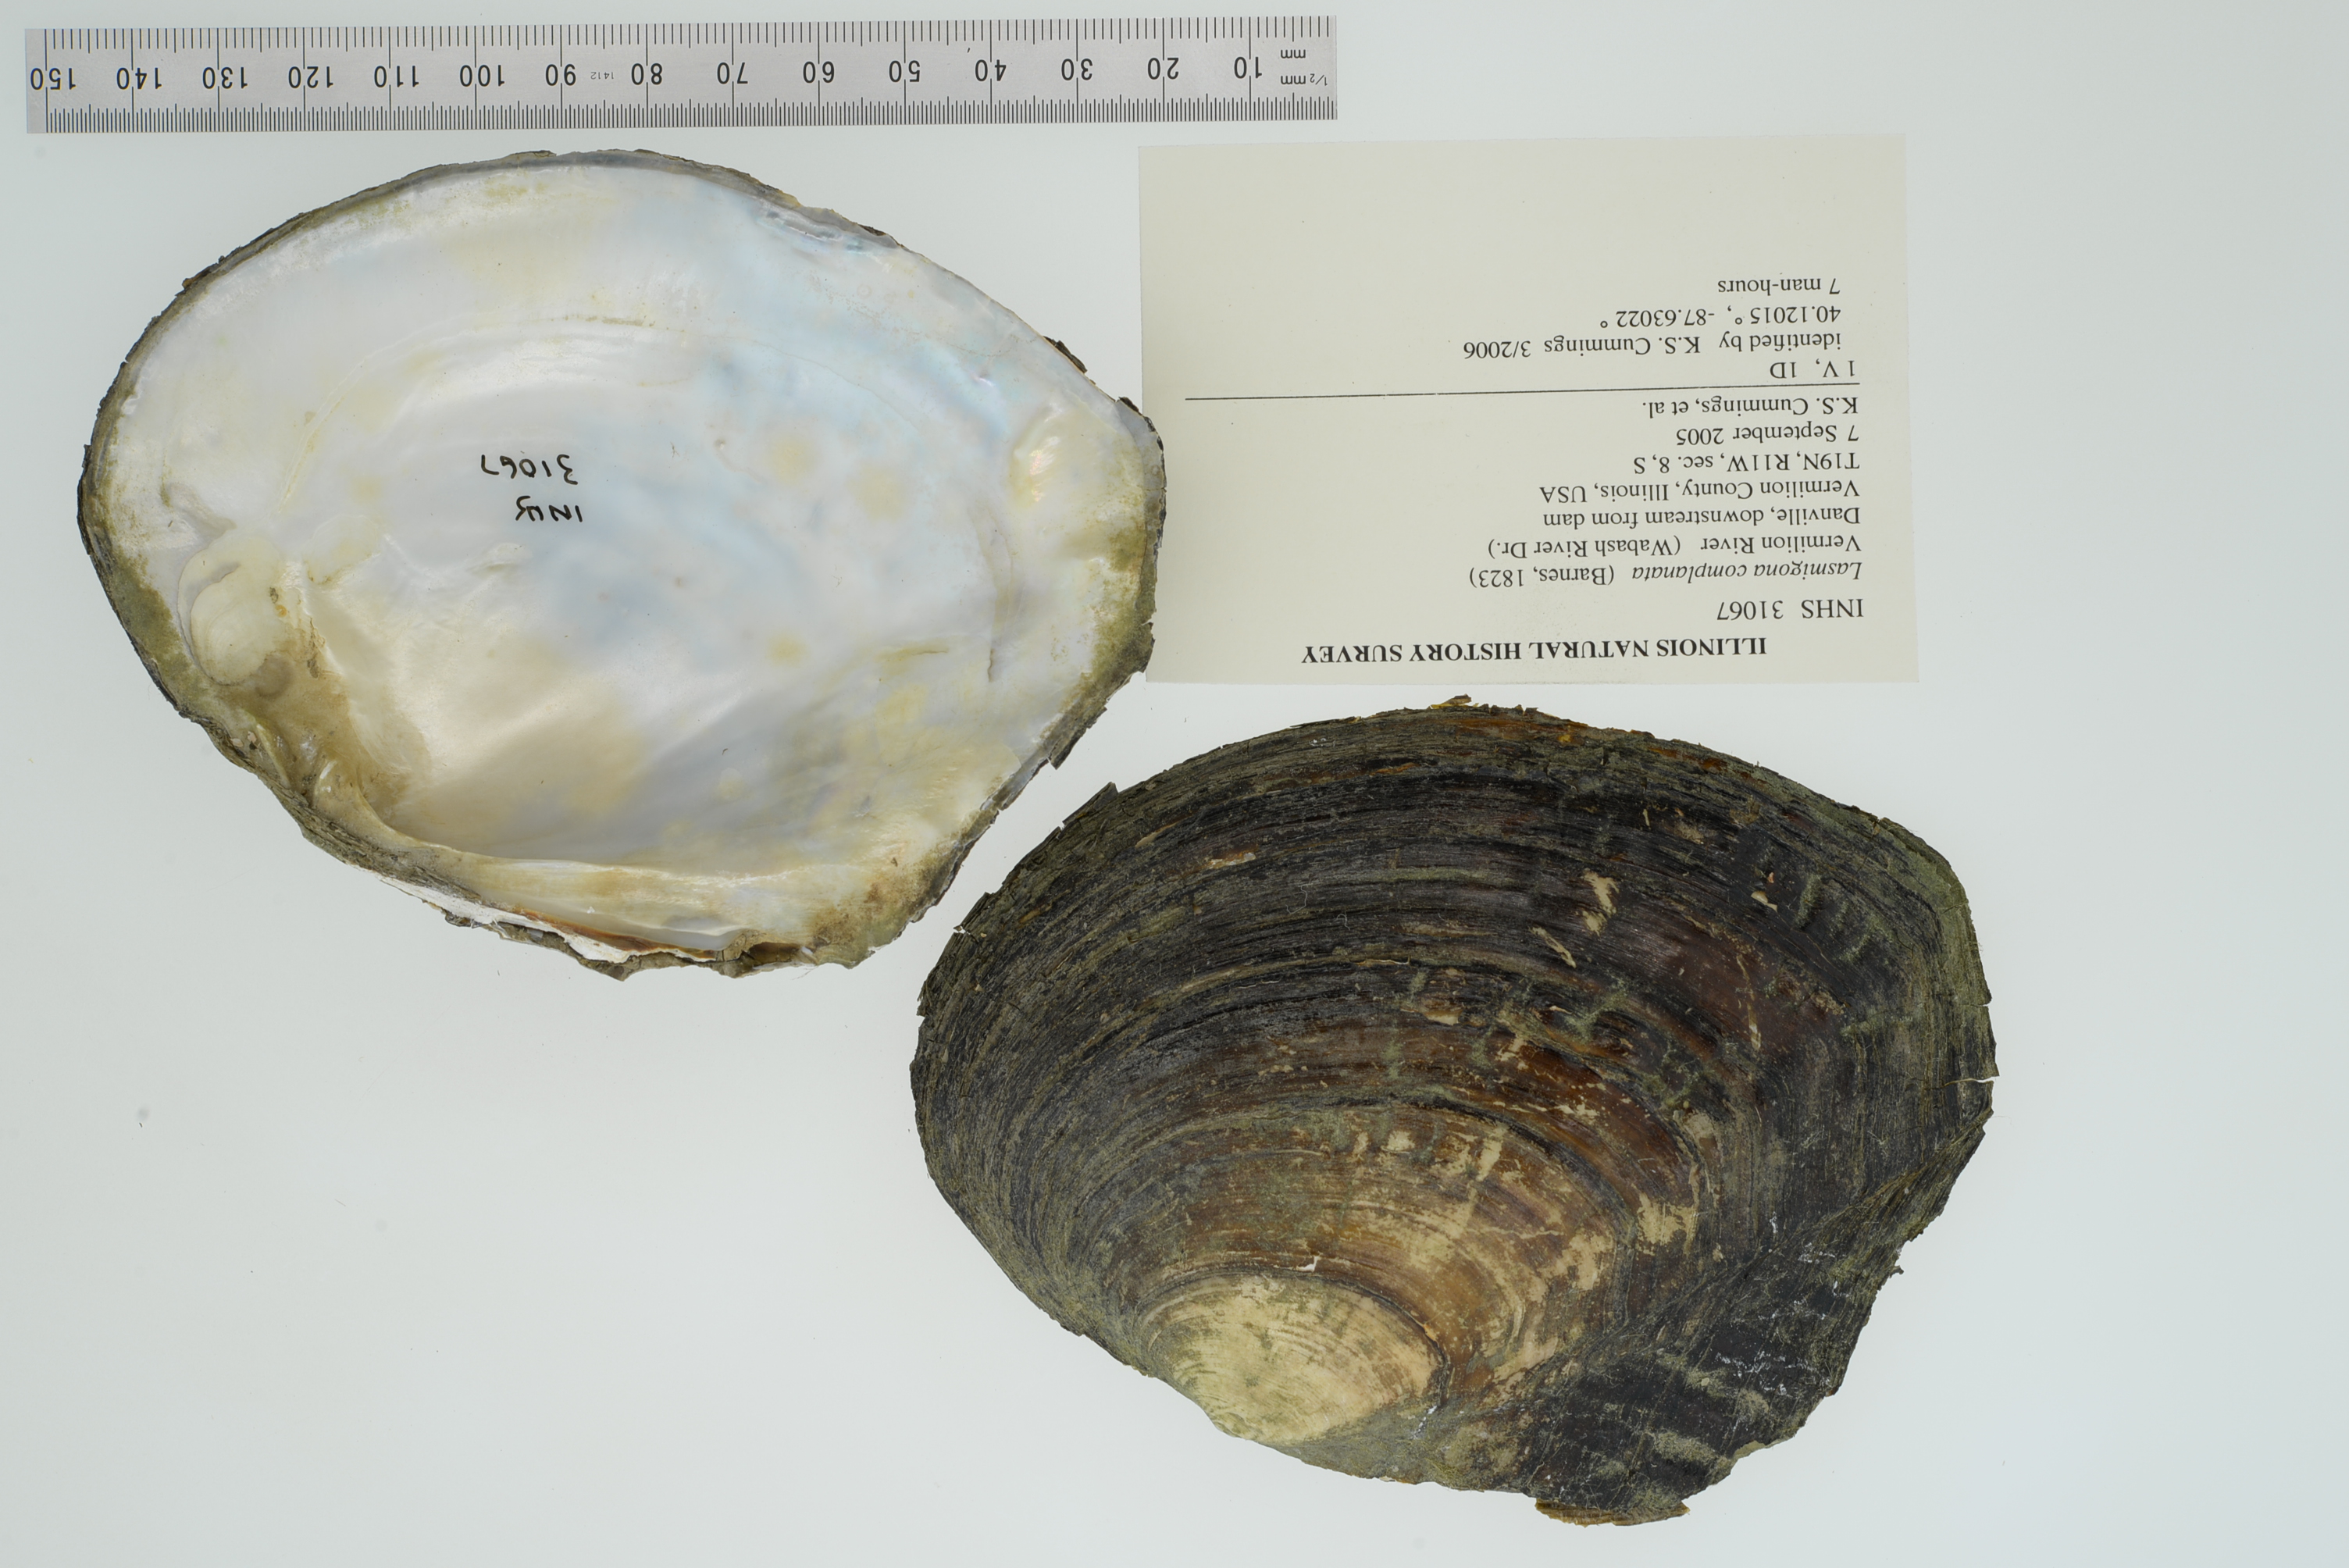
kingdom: Animalia
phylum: Mollusca
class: Bivalvia
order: Unionida
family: Unionidae
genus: Lasmigona
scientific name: Lasmigona complanata
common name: White heelsplitter
